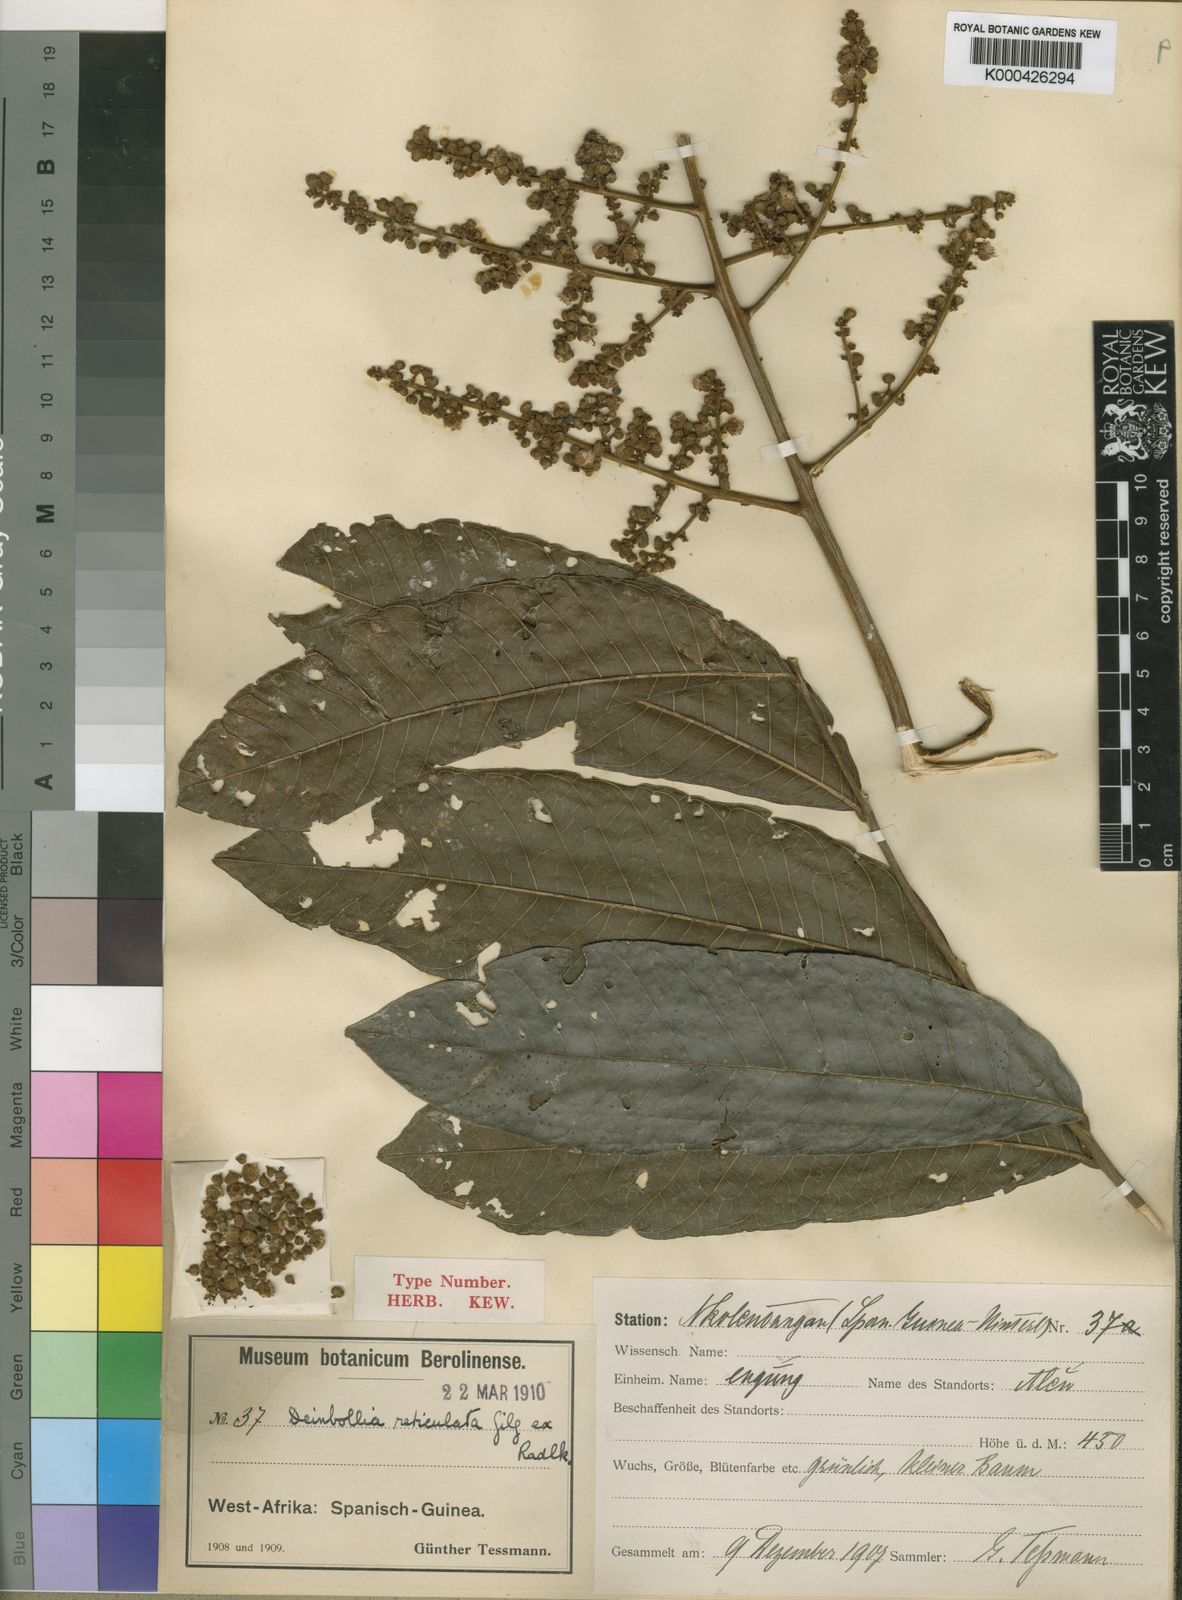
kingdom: Plantae
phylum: Tracheophyta
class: Magnoliopsida
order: Sapindales
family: Sapindaceae
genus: Deinbollia
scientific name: Deinbollia reticulata
